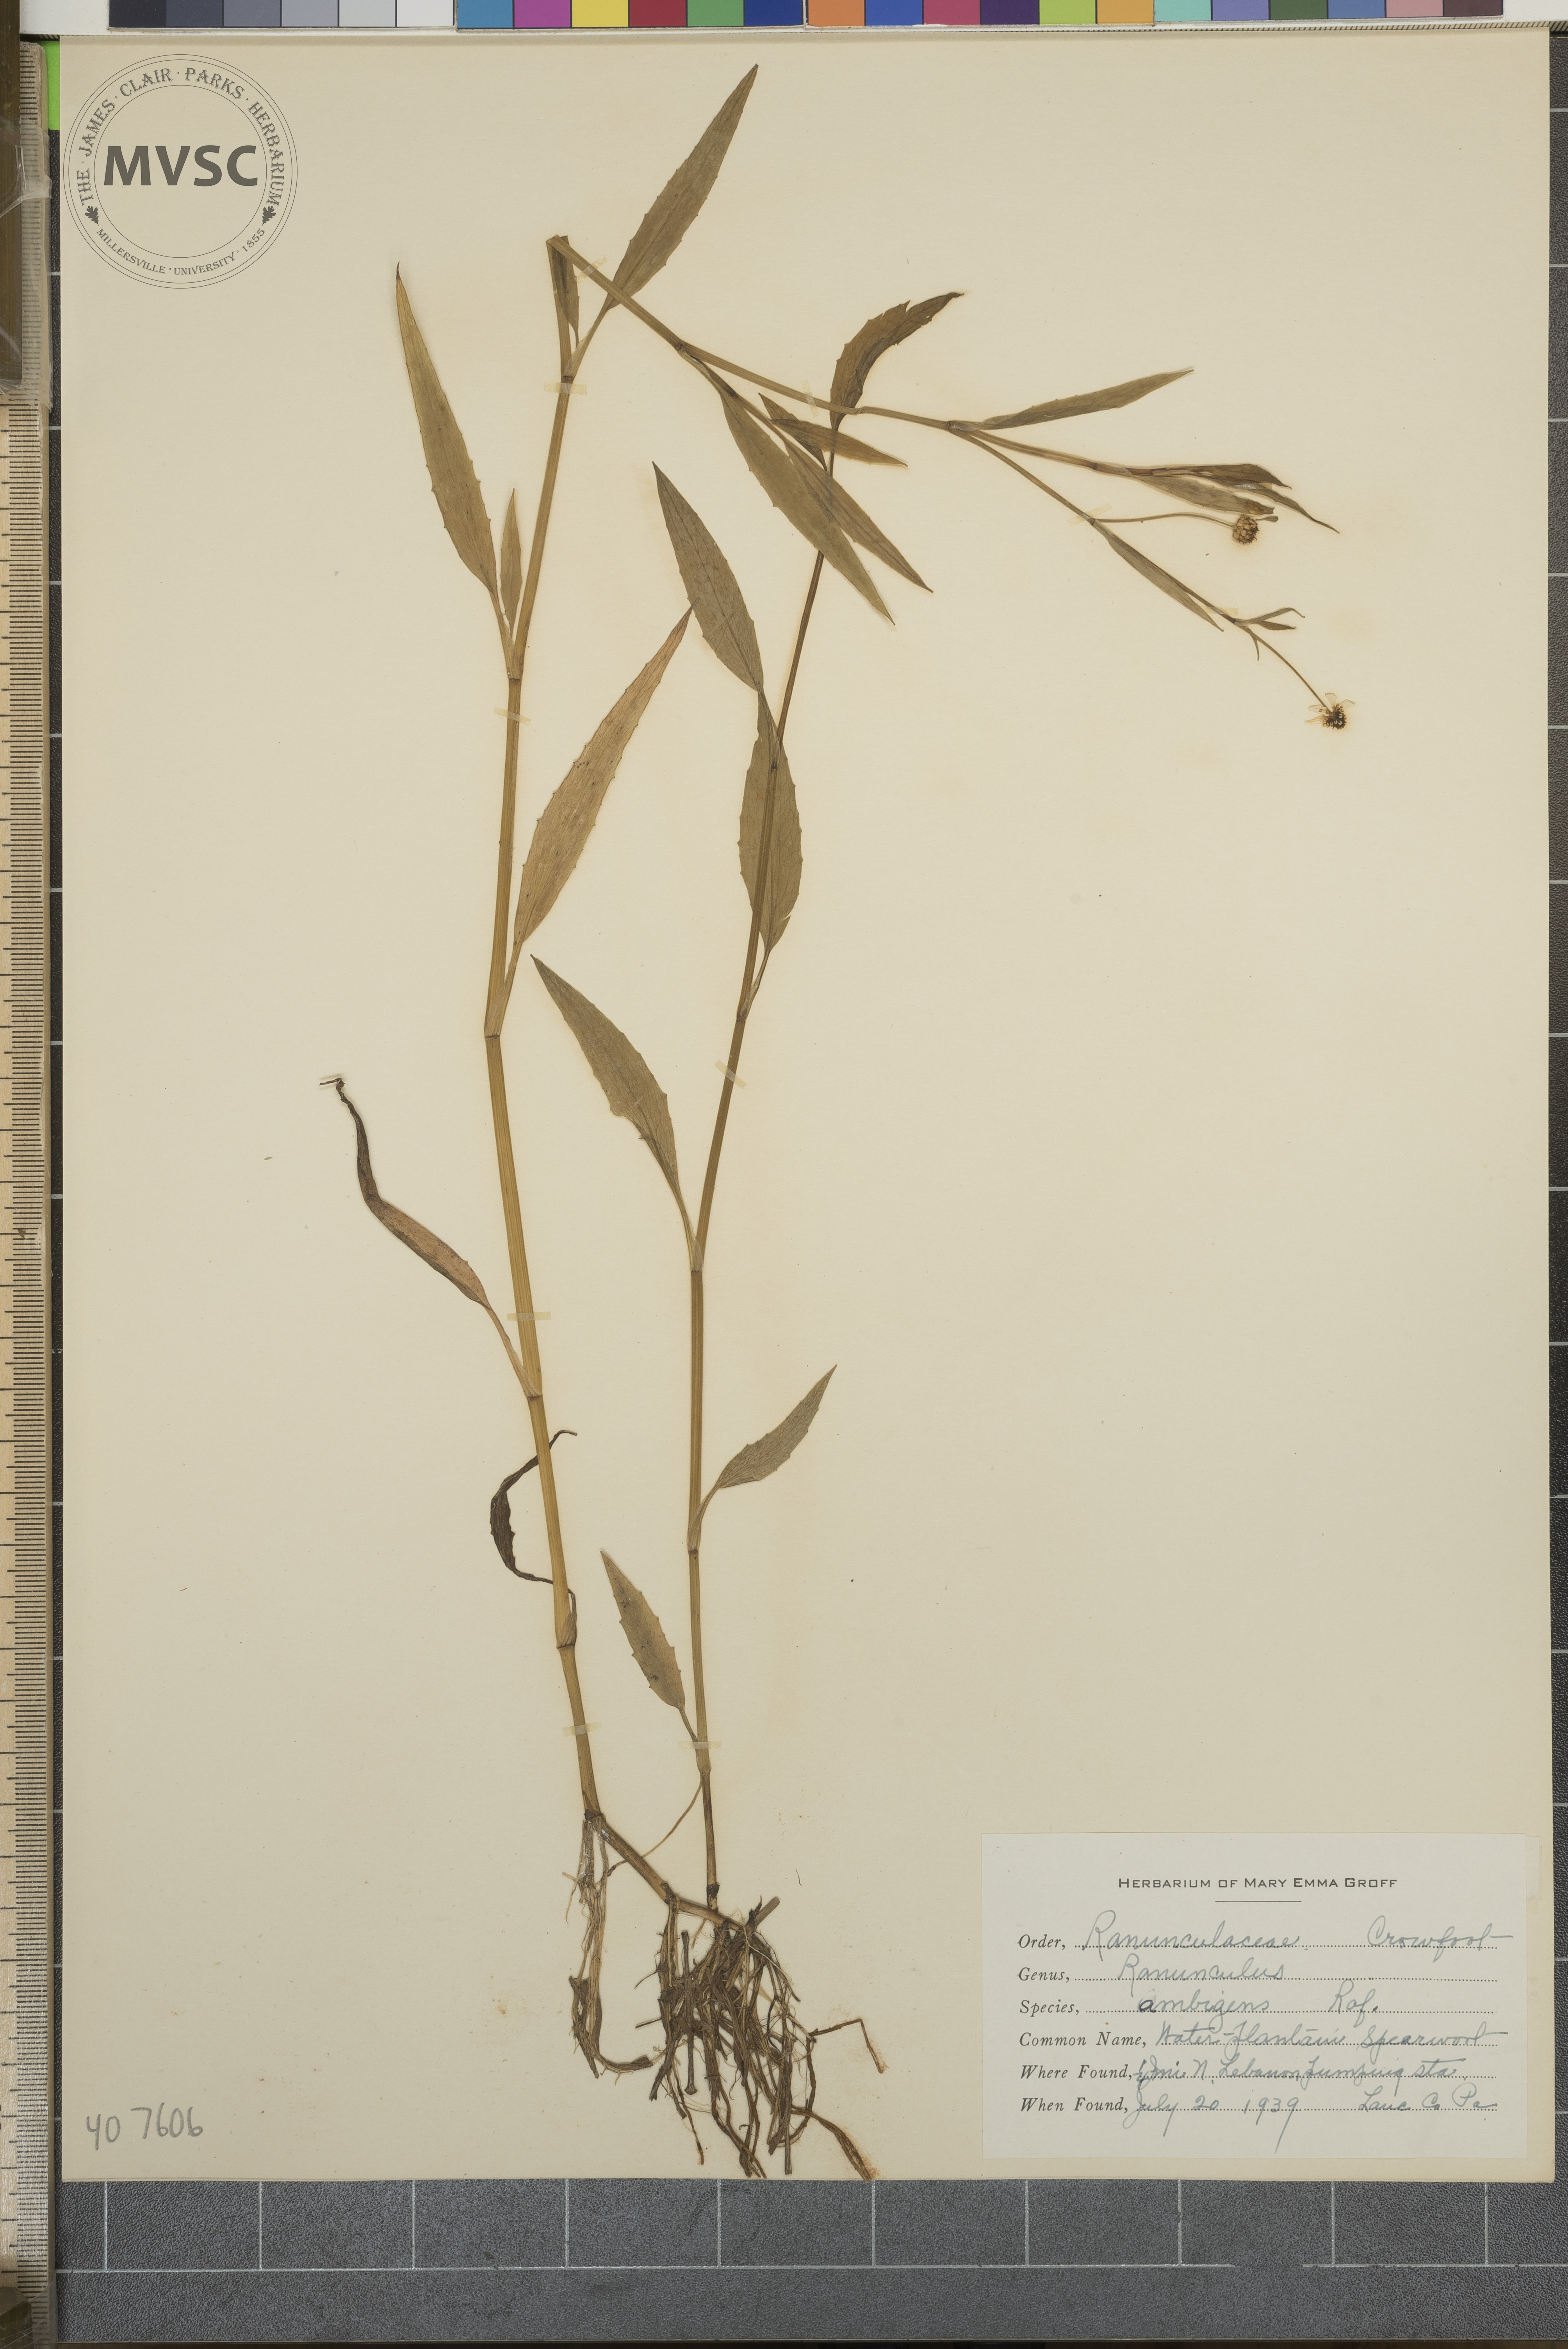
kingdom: Plantae
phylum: Tracheophyta
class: Magnoliopsida
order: Ranunculales
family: Ranunculaceae
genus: Ranunculus
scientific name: Ranunculus ambigens
